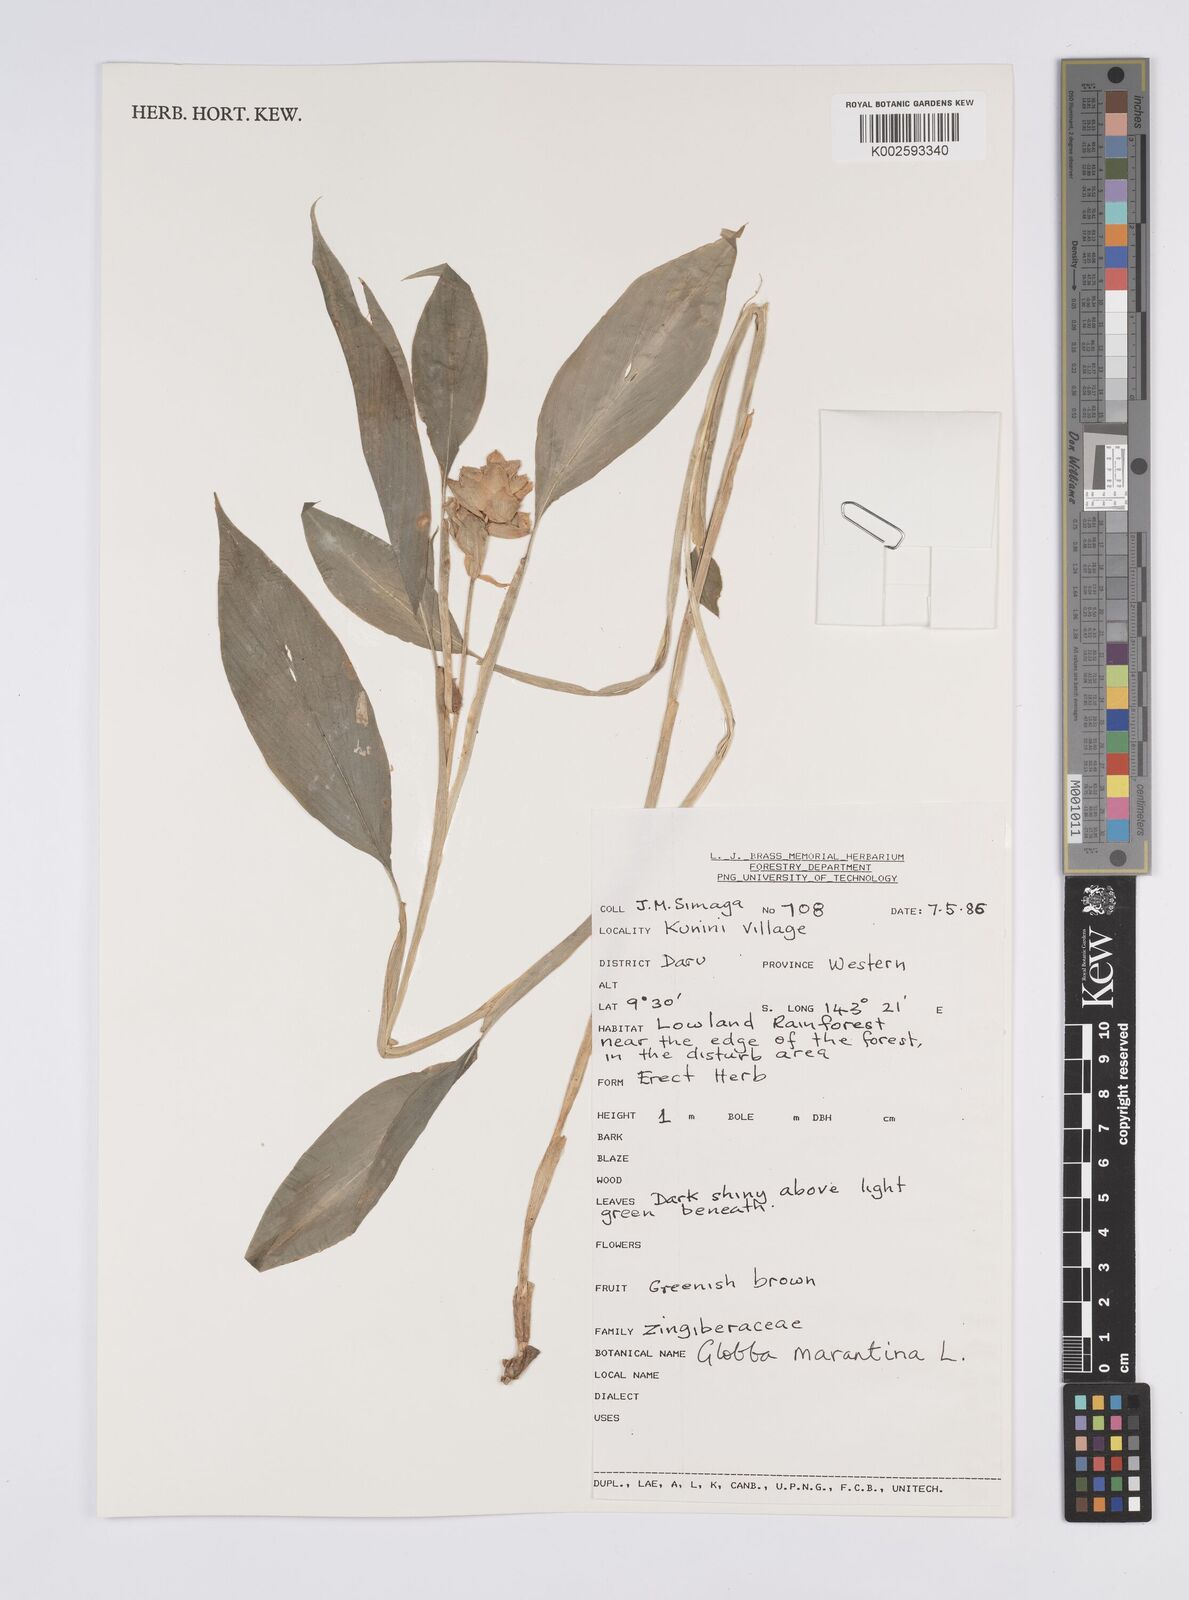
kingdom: Plantae
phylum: Tracheophyta
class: Liliopsida
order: Zingiberales
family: Zingiberaceae
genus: Globba
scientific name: Globba marantina
